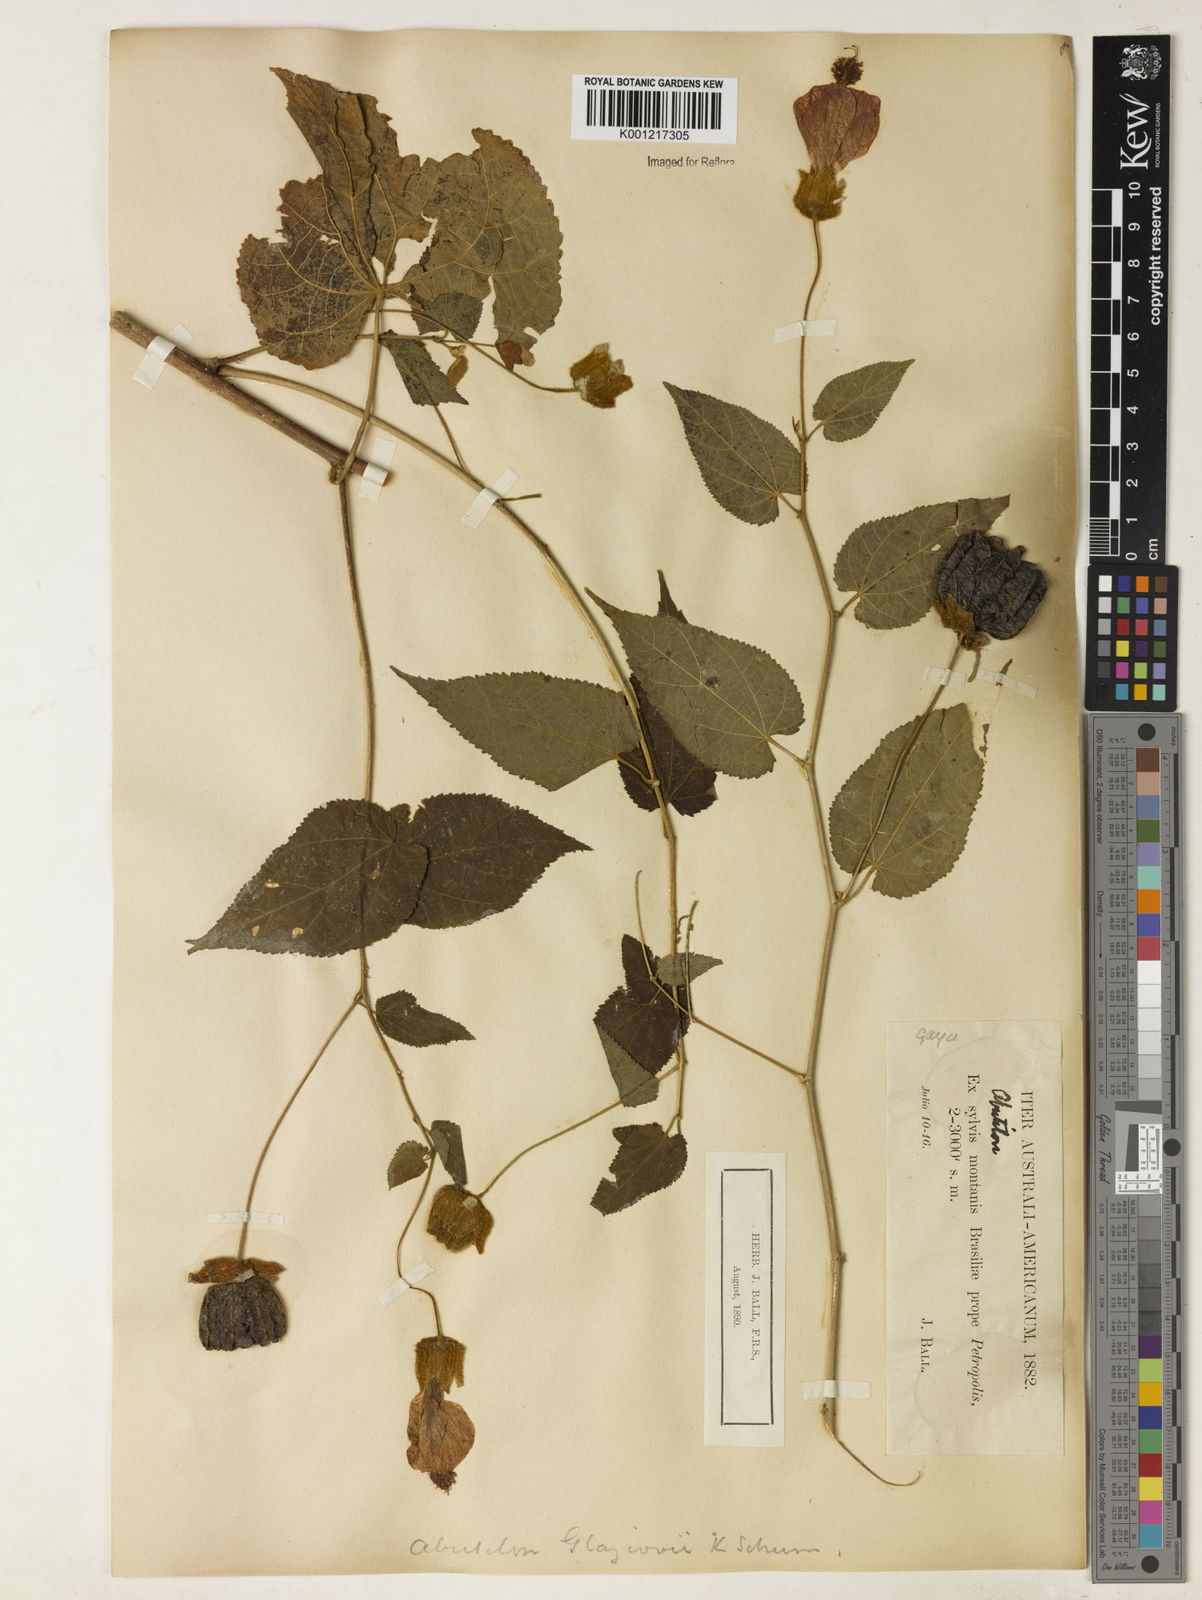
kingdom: Plantae
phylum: Tracheophyta
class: Magnoliopsida
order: Malvales
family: Malvaceae
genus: Callianthe
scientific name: Callianthe glaziovii
